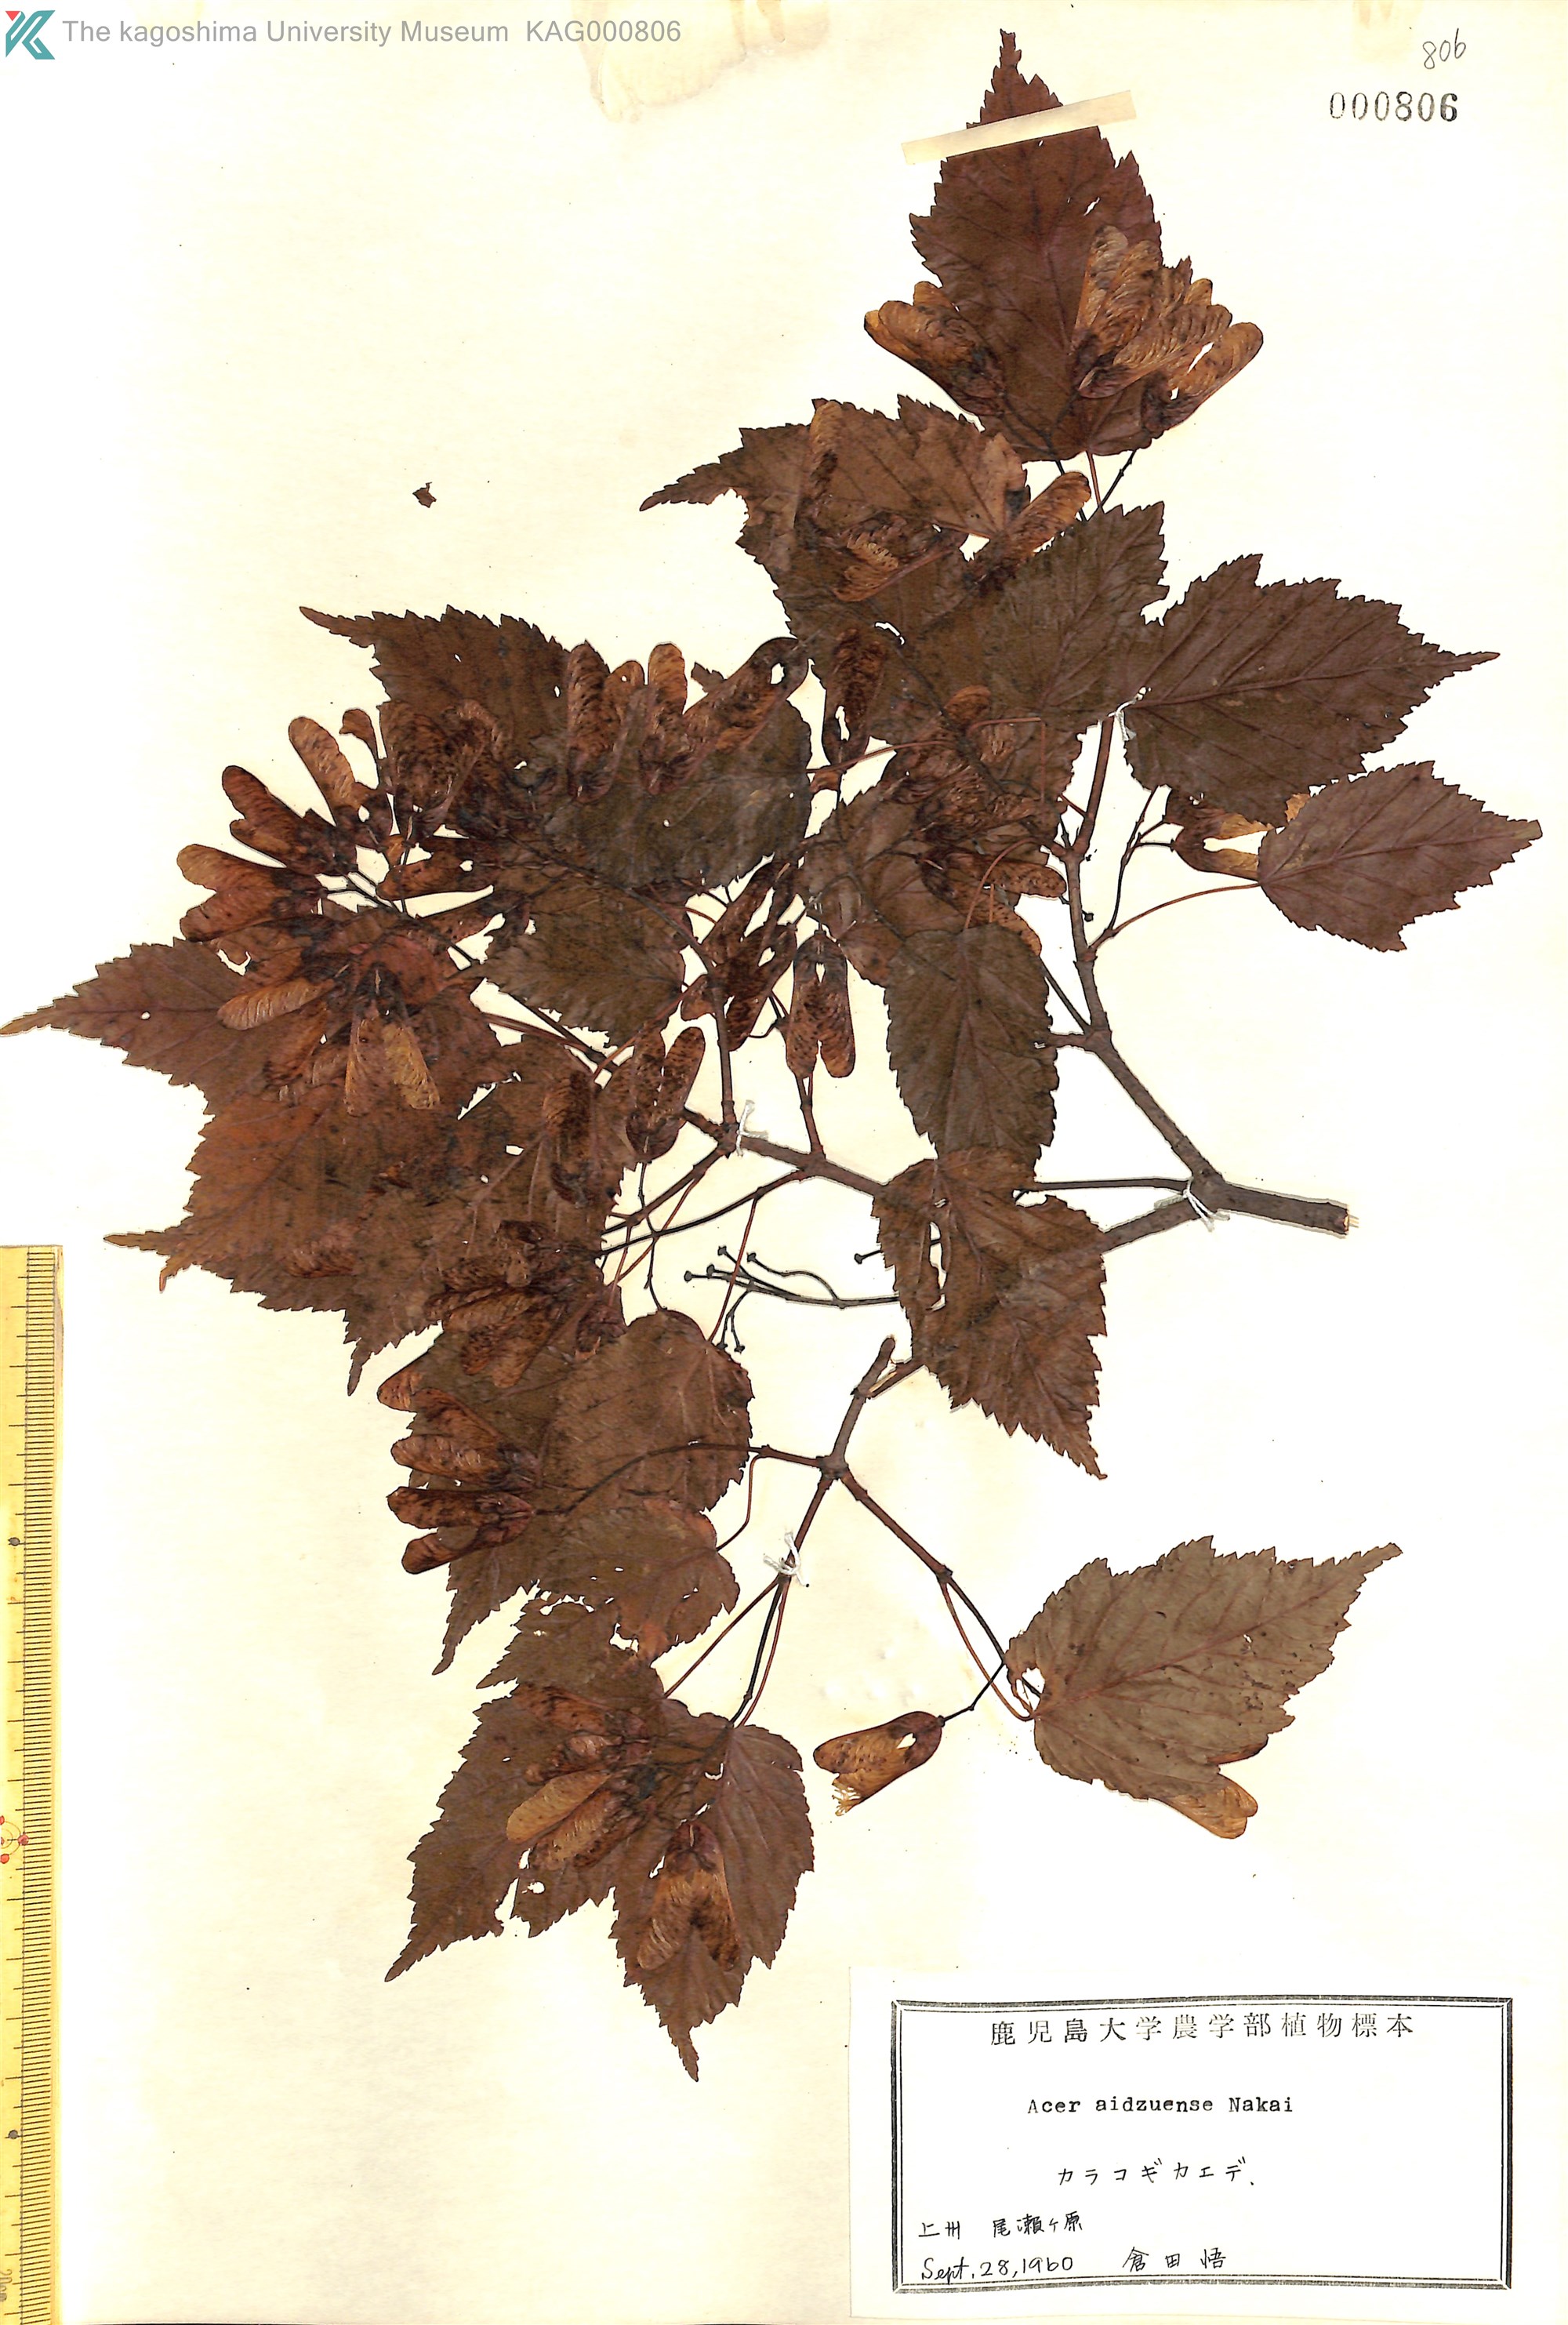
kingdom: Plantae
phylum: Tracheophyta
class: Magnoliopsida
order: Sapindales
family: Sapindaceae
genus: Acer
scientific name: Acer tataricum
